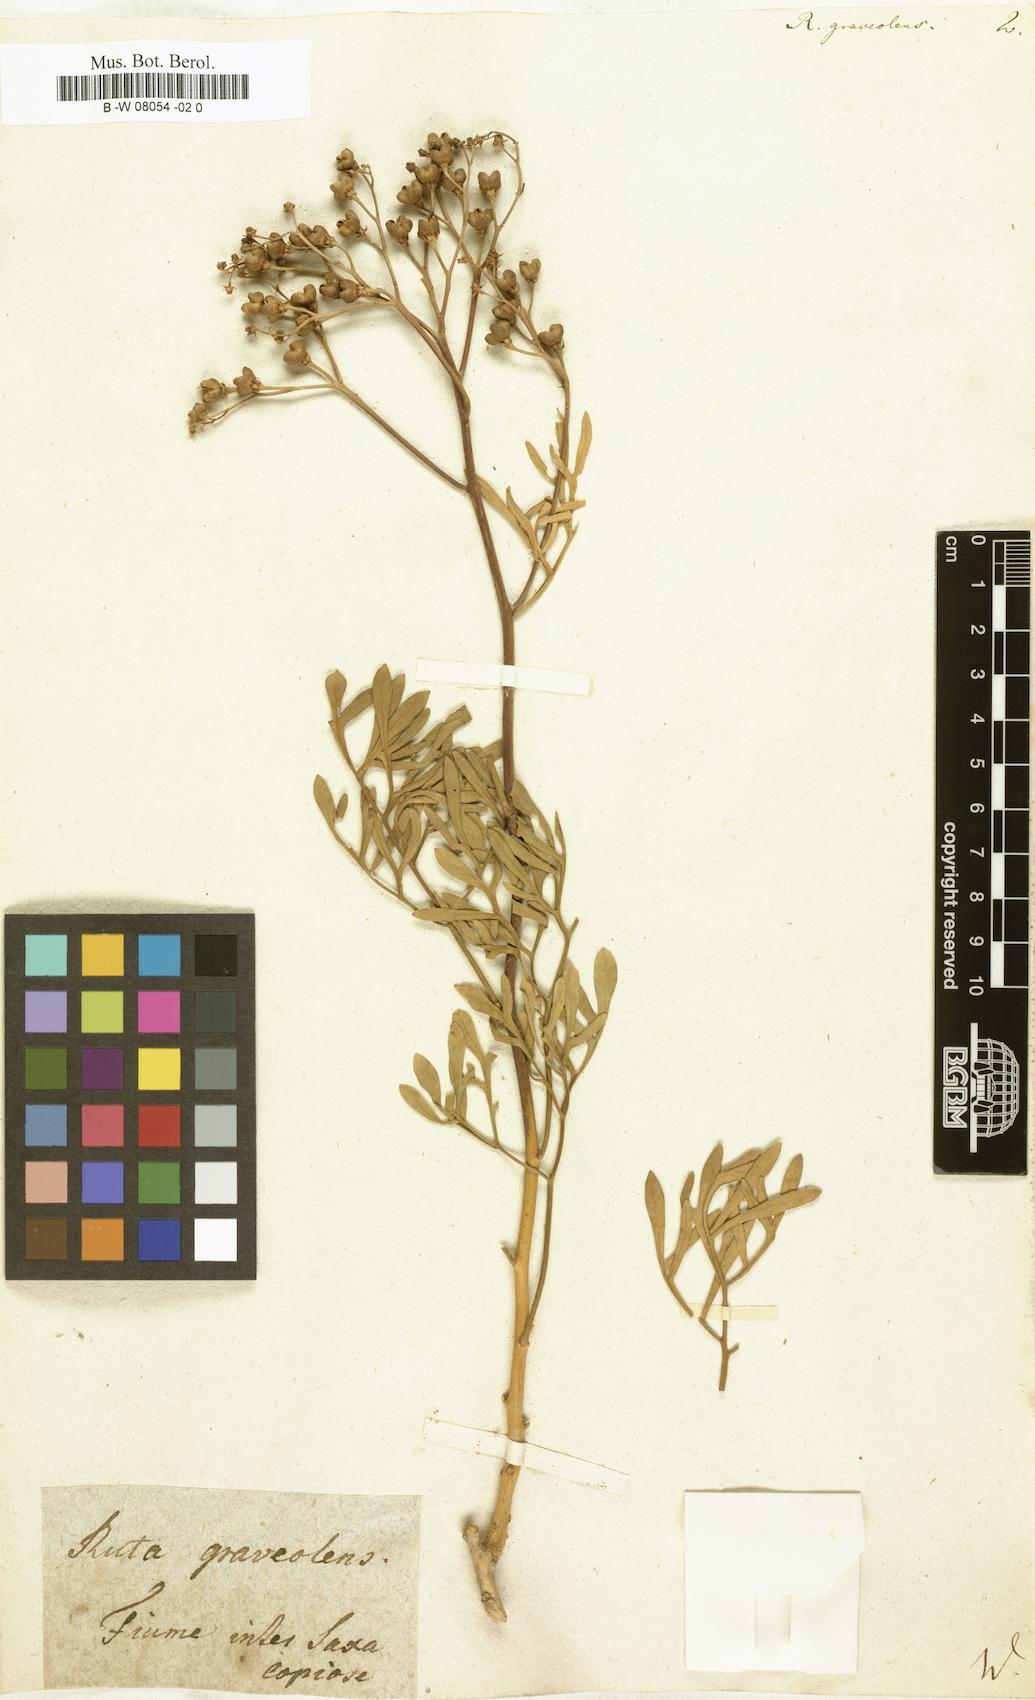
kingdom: Plantae
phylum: Tracheophyta
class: Magnoliopsida
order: Sapindales
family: Rutaceae
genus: Ruta
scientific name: Ruta graveolens
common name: Common rue
